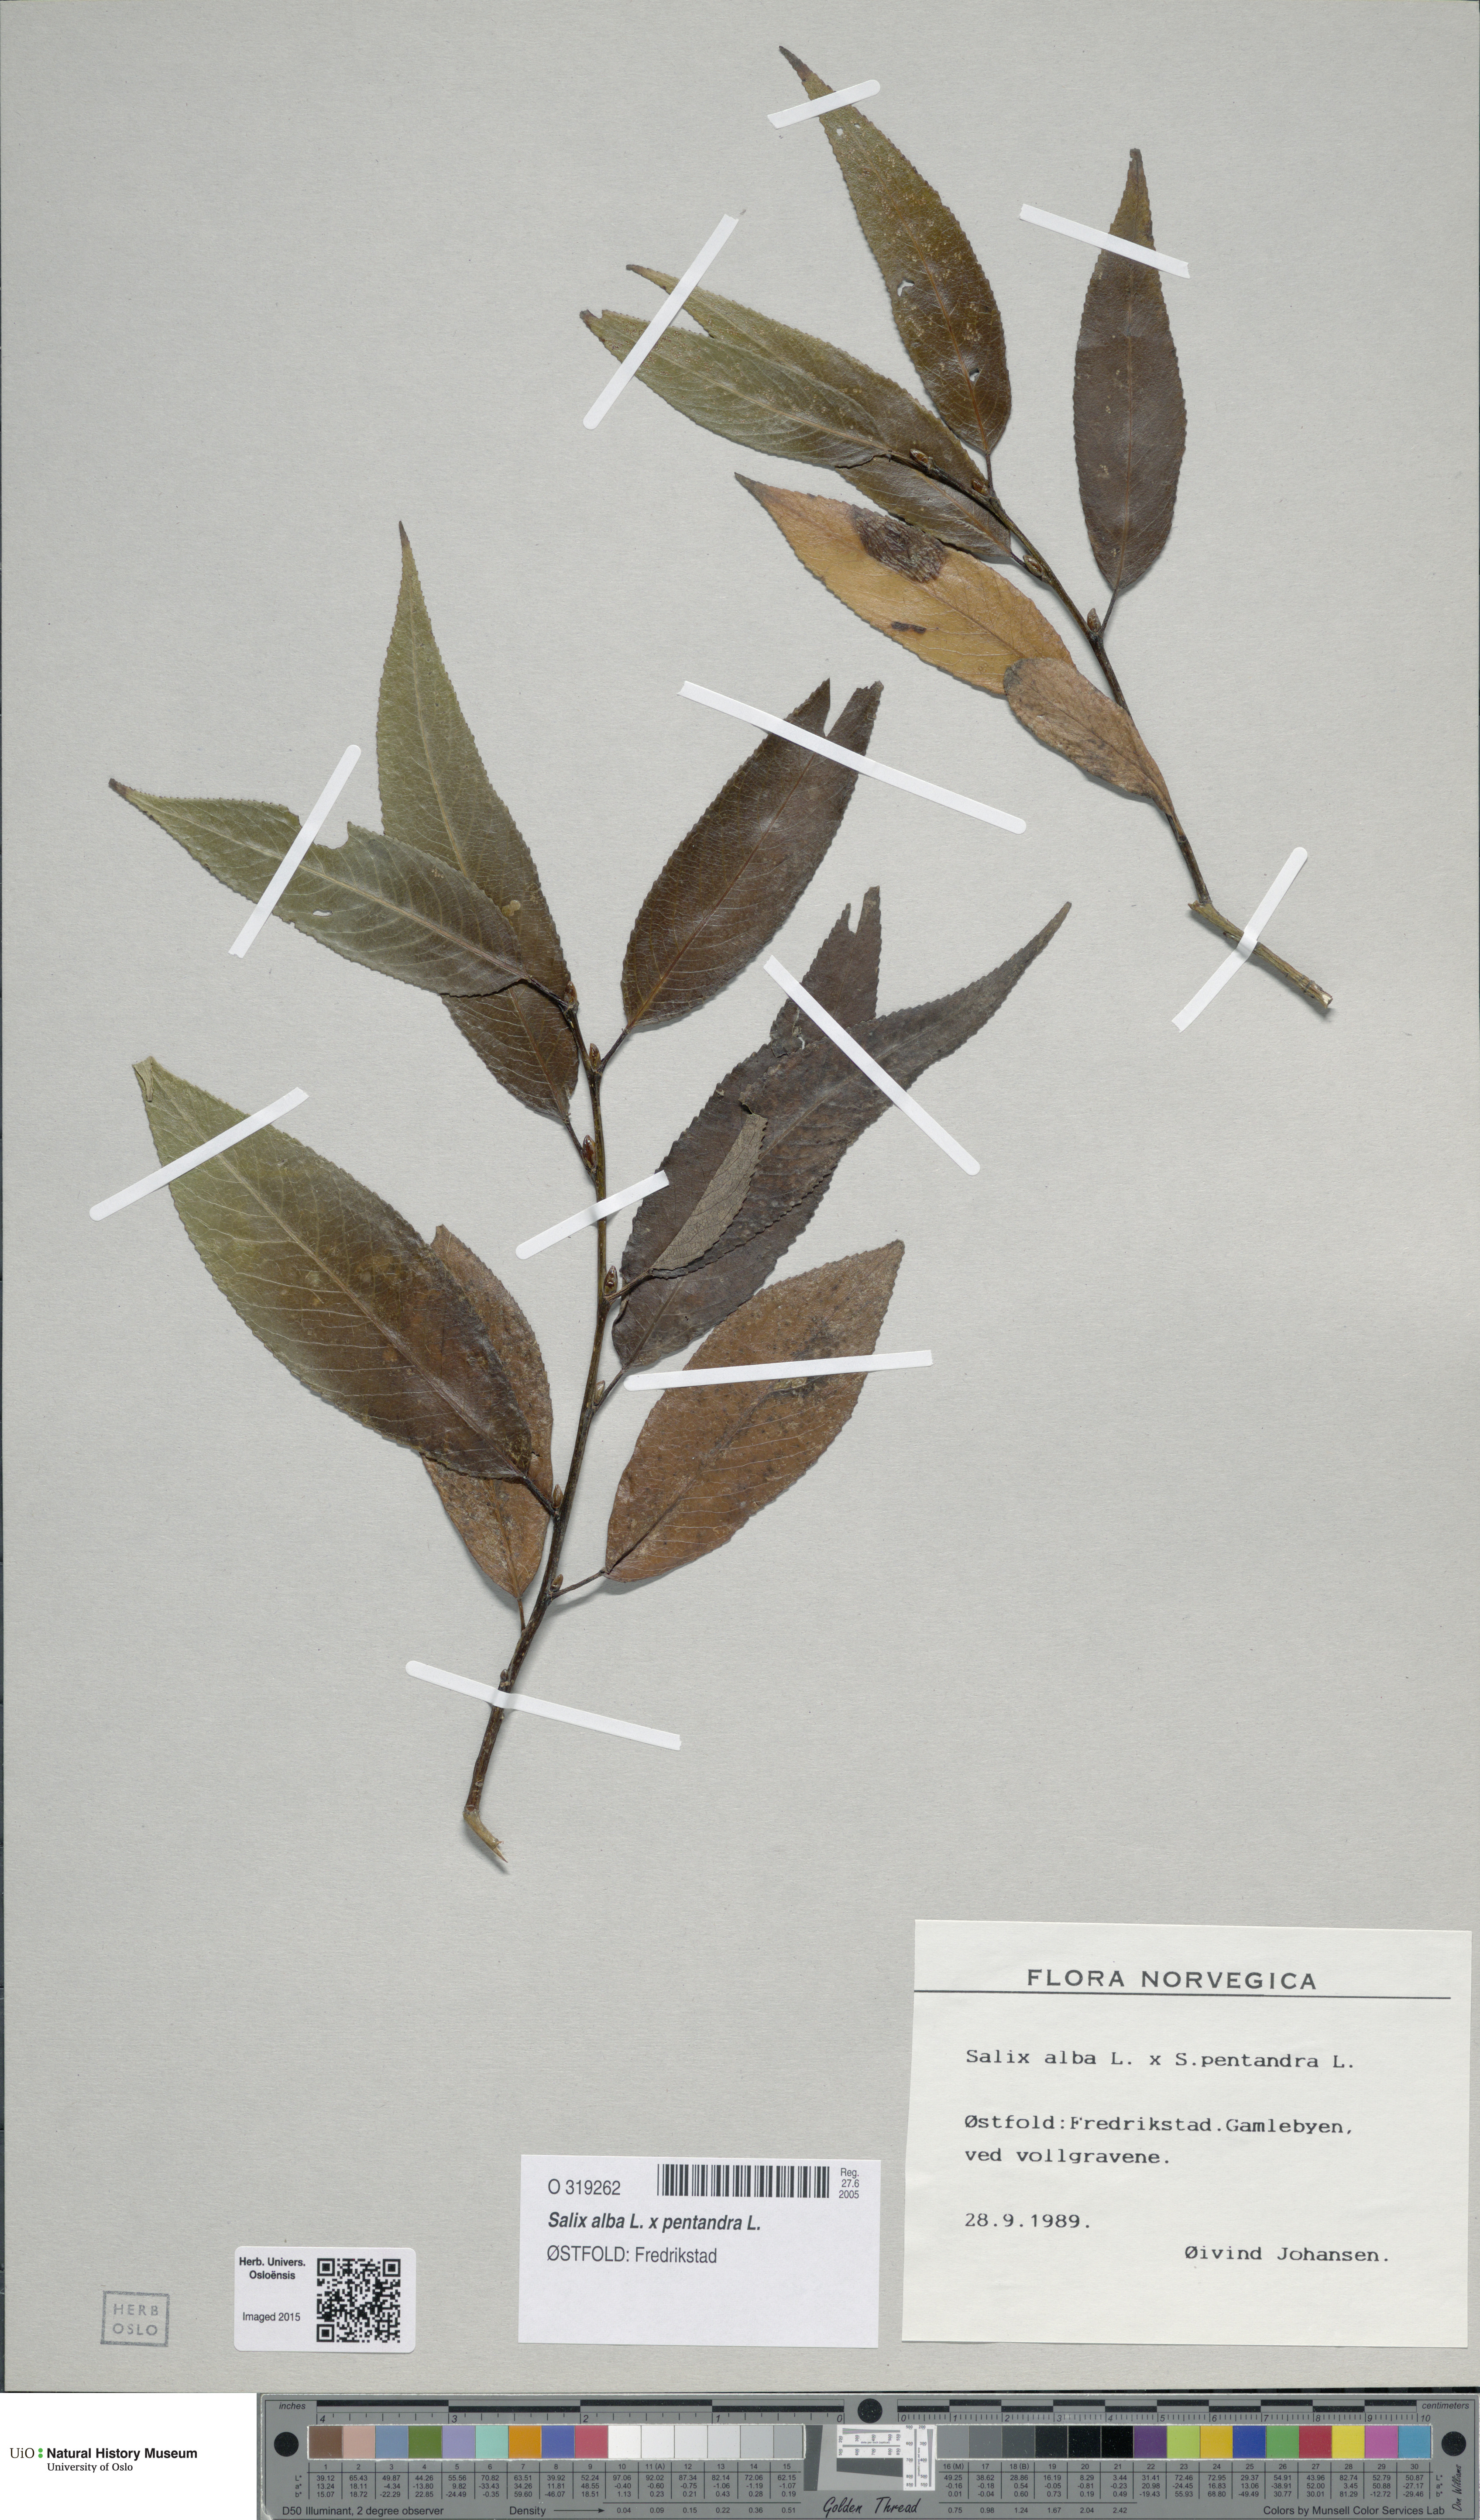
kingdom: Plantae
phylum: Tracheophyta
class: Magnoliopsida
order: Malpighiales
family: Salicaceae
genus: Salix
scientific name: Salix
